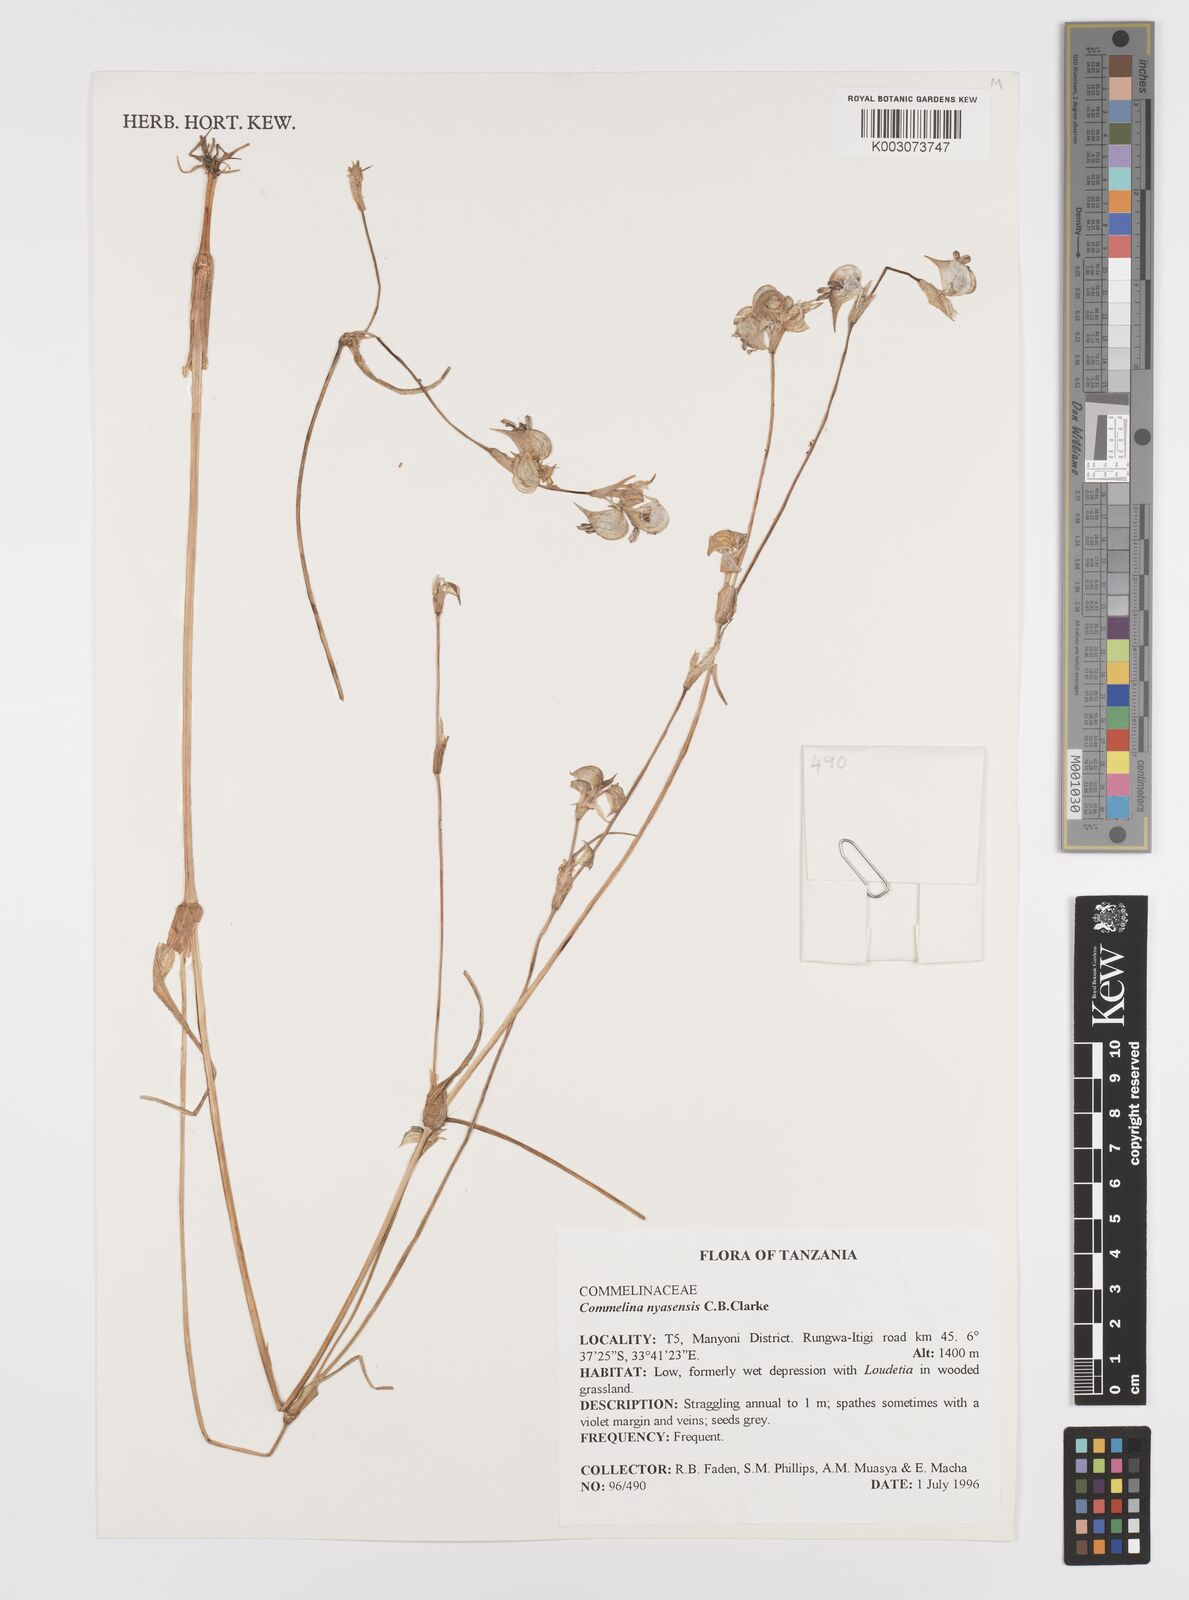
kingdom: Plantae
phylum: Tracheophyta
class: Liliopsida
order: Commelinales
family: Commelinaceae
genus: Commelina
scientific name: Commelina nyasensis
